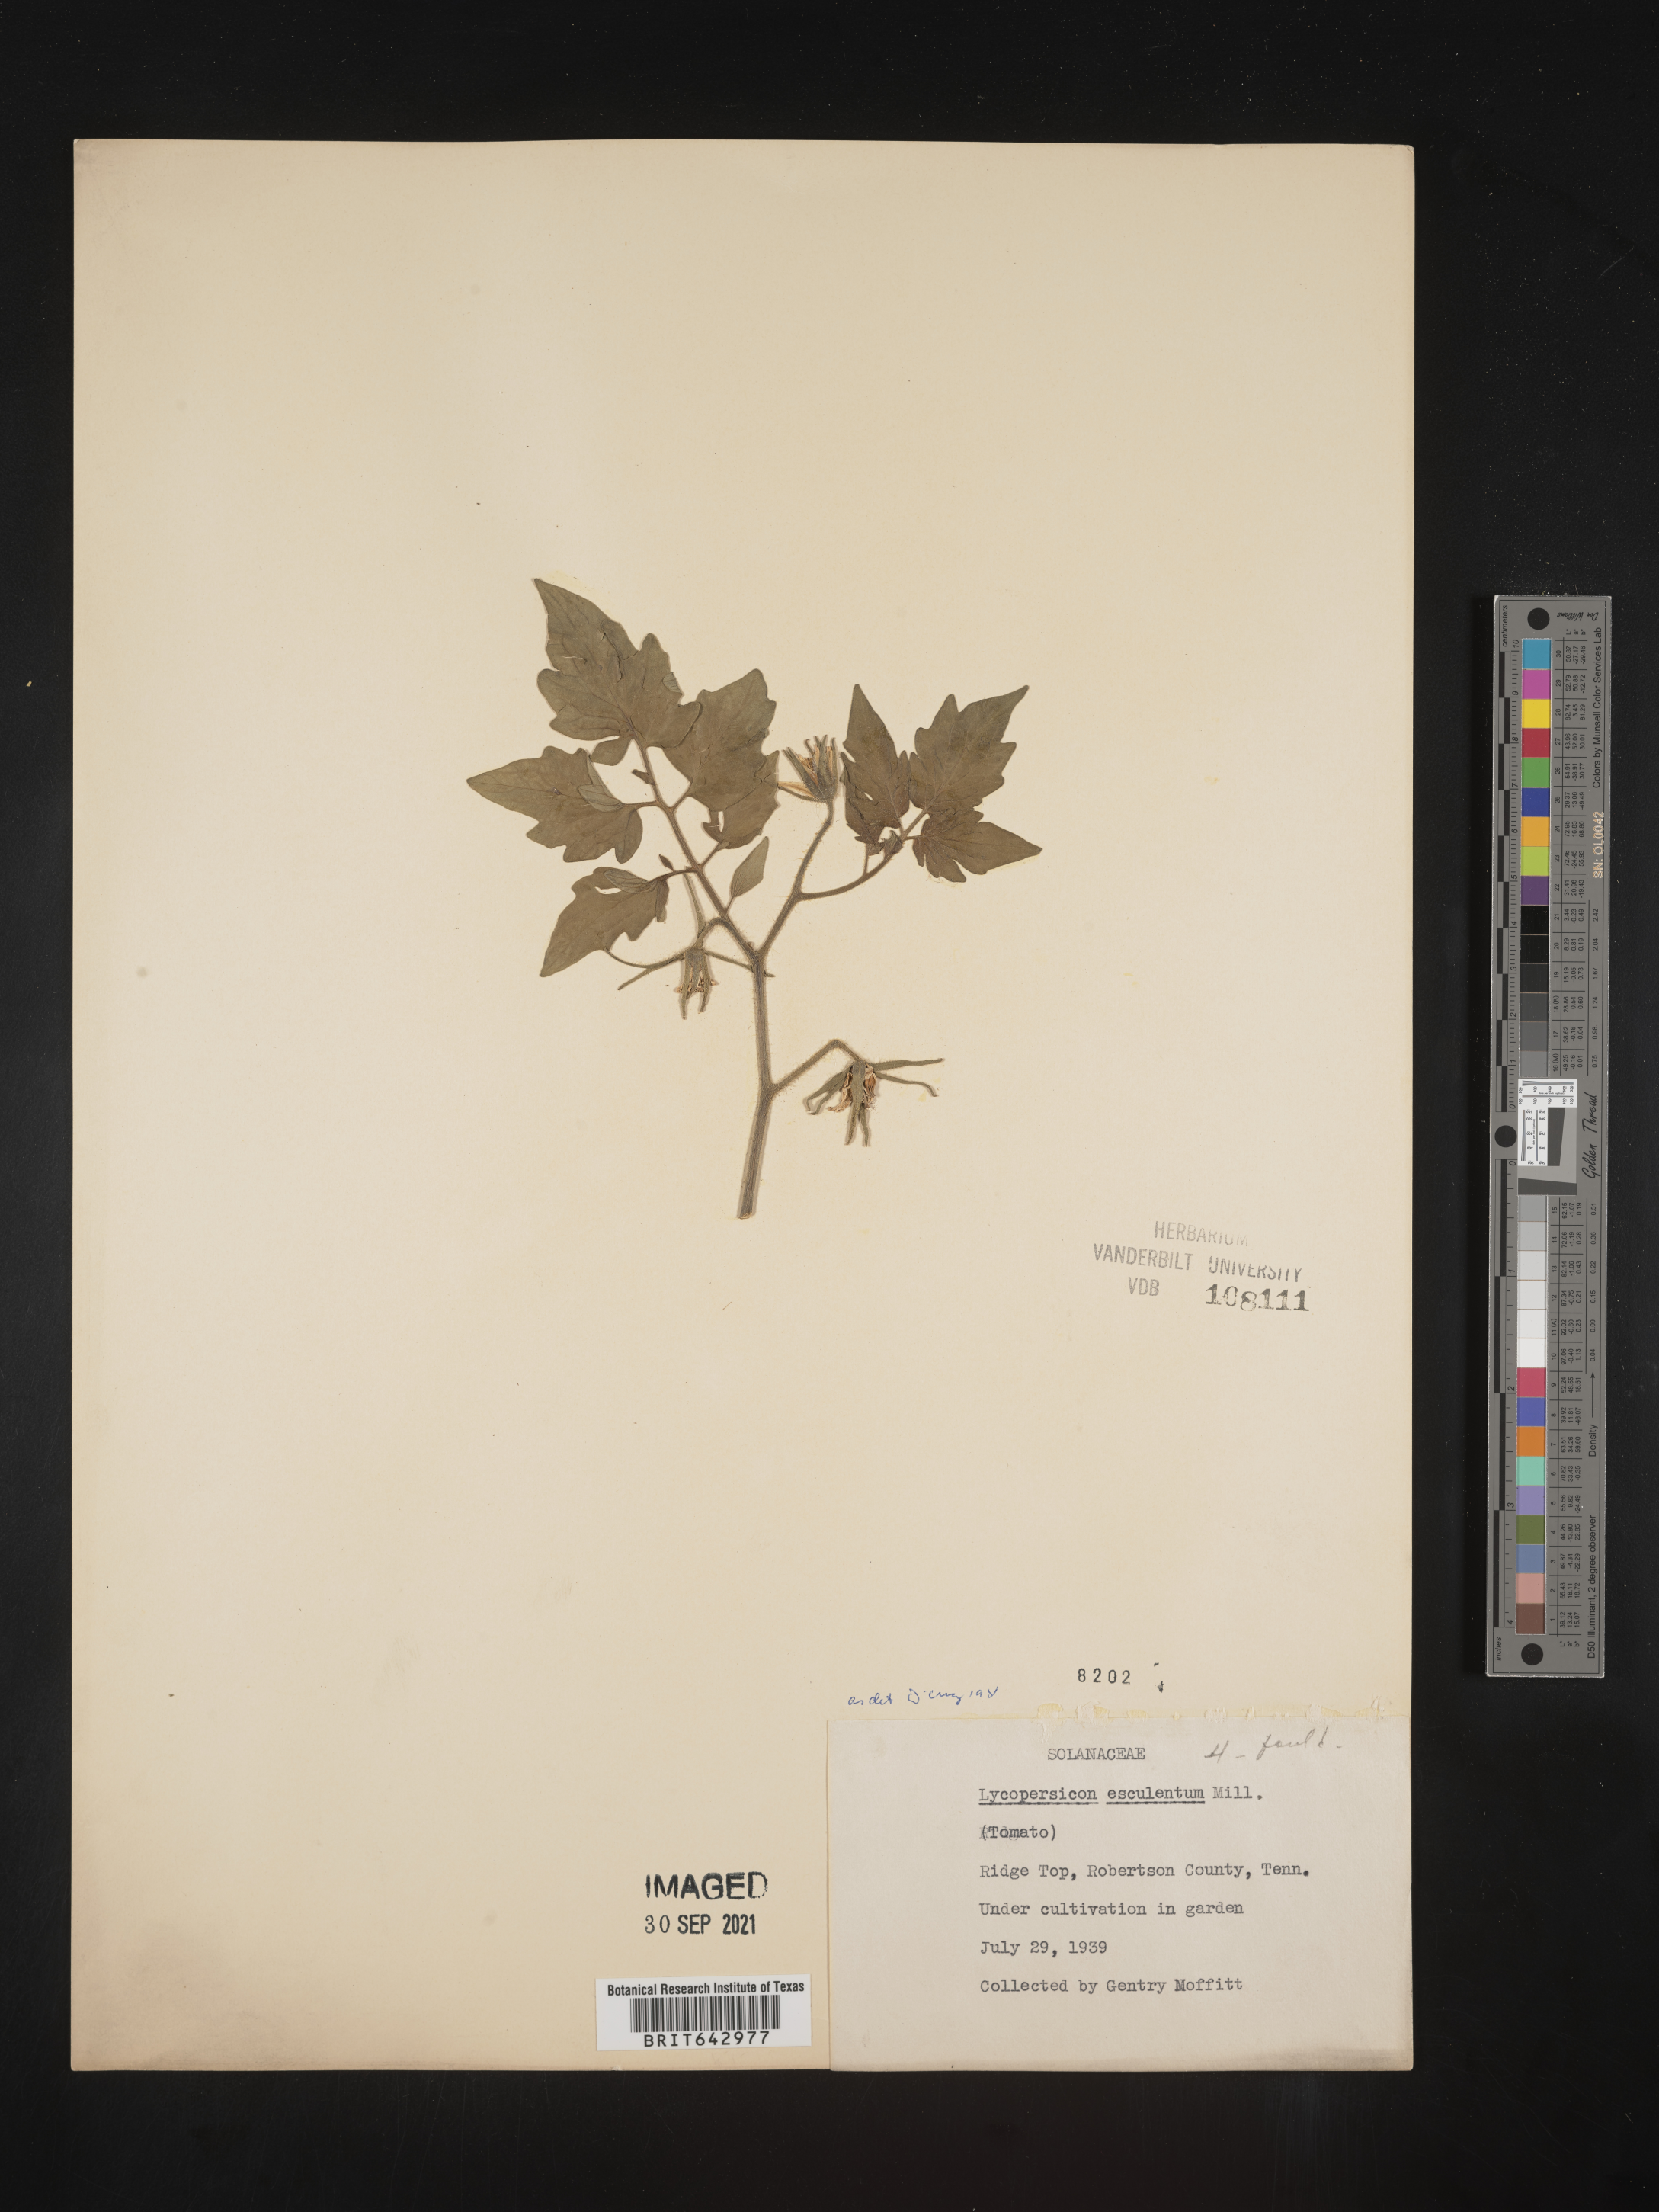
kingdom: Plantae
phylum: Tracheophyta
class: Magnoliopsida
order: Solanales
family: Solanaceae
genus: Lycopersicon
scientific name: Lycopersicon
